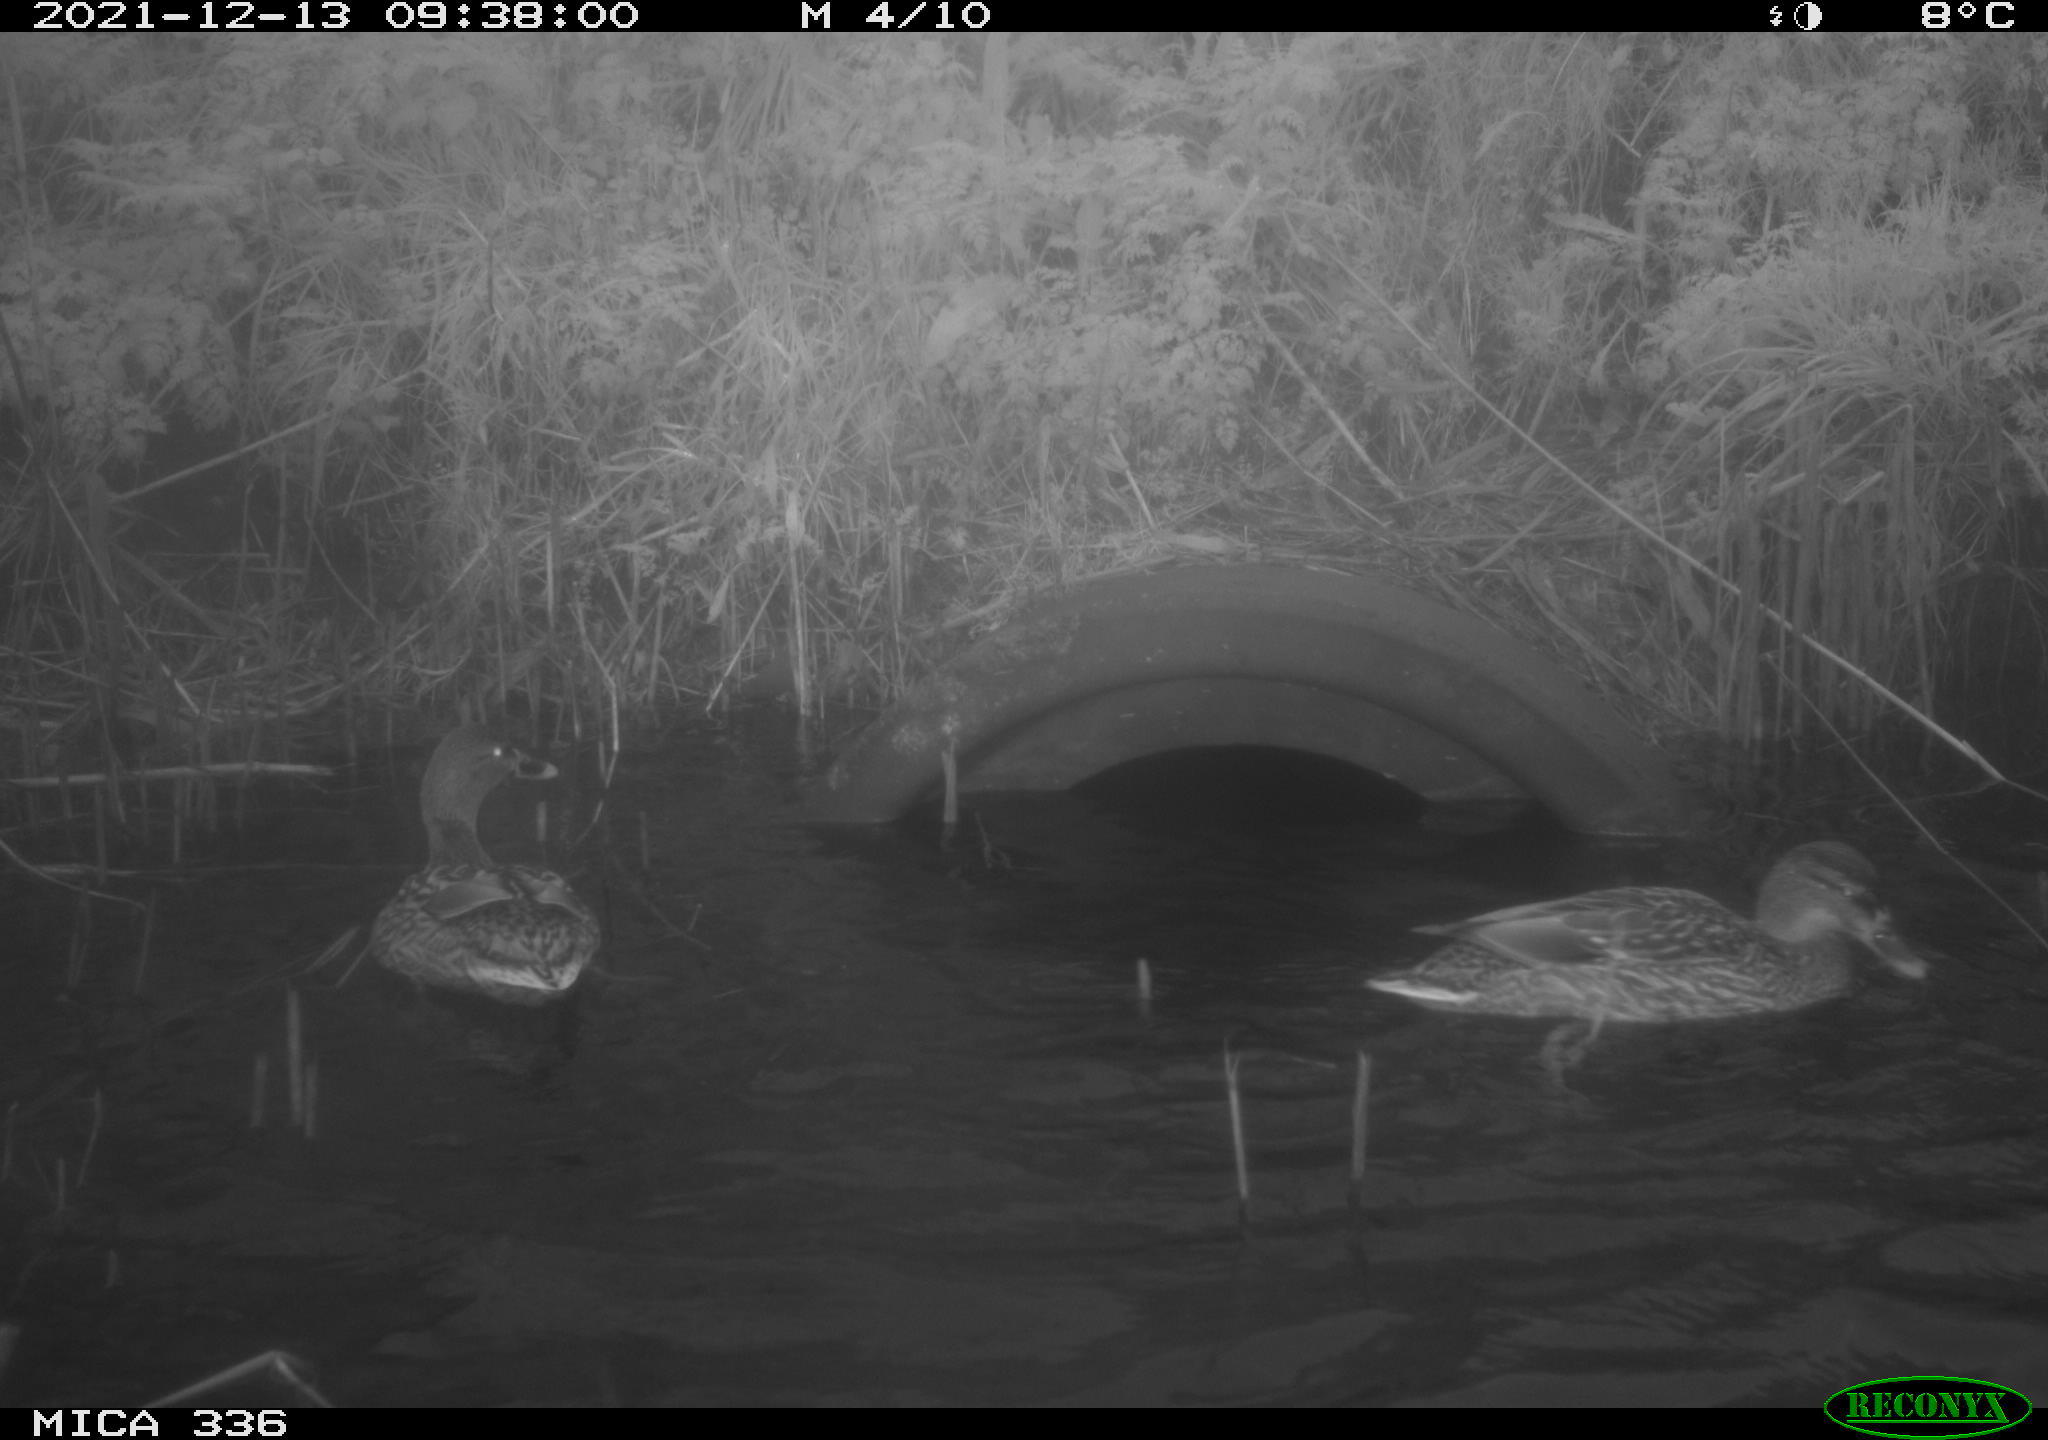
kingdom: Animalia
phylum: Chordata
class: Aves
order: Anseriformes
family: Anatidae
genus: Anas
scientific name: Anas platyrhynchos
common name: Mallard
